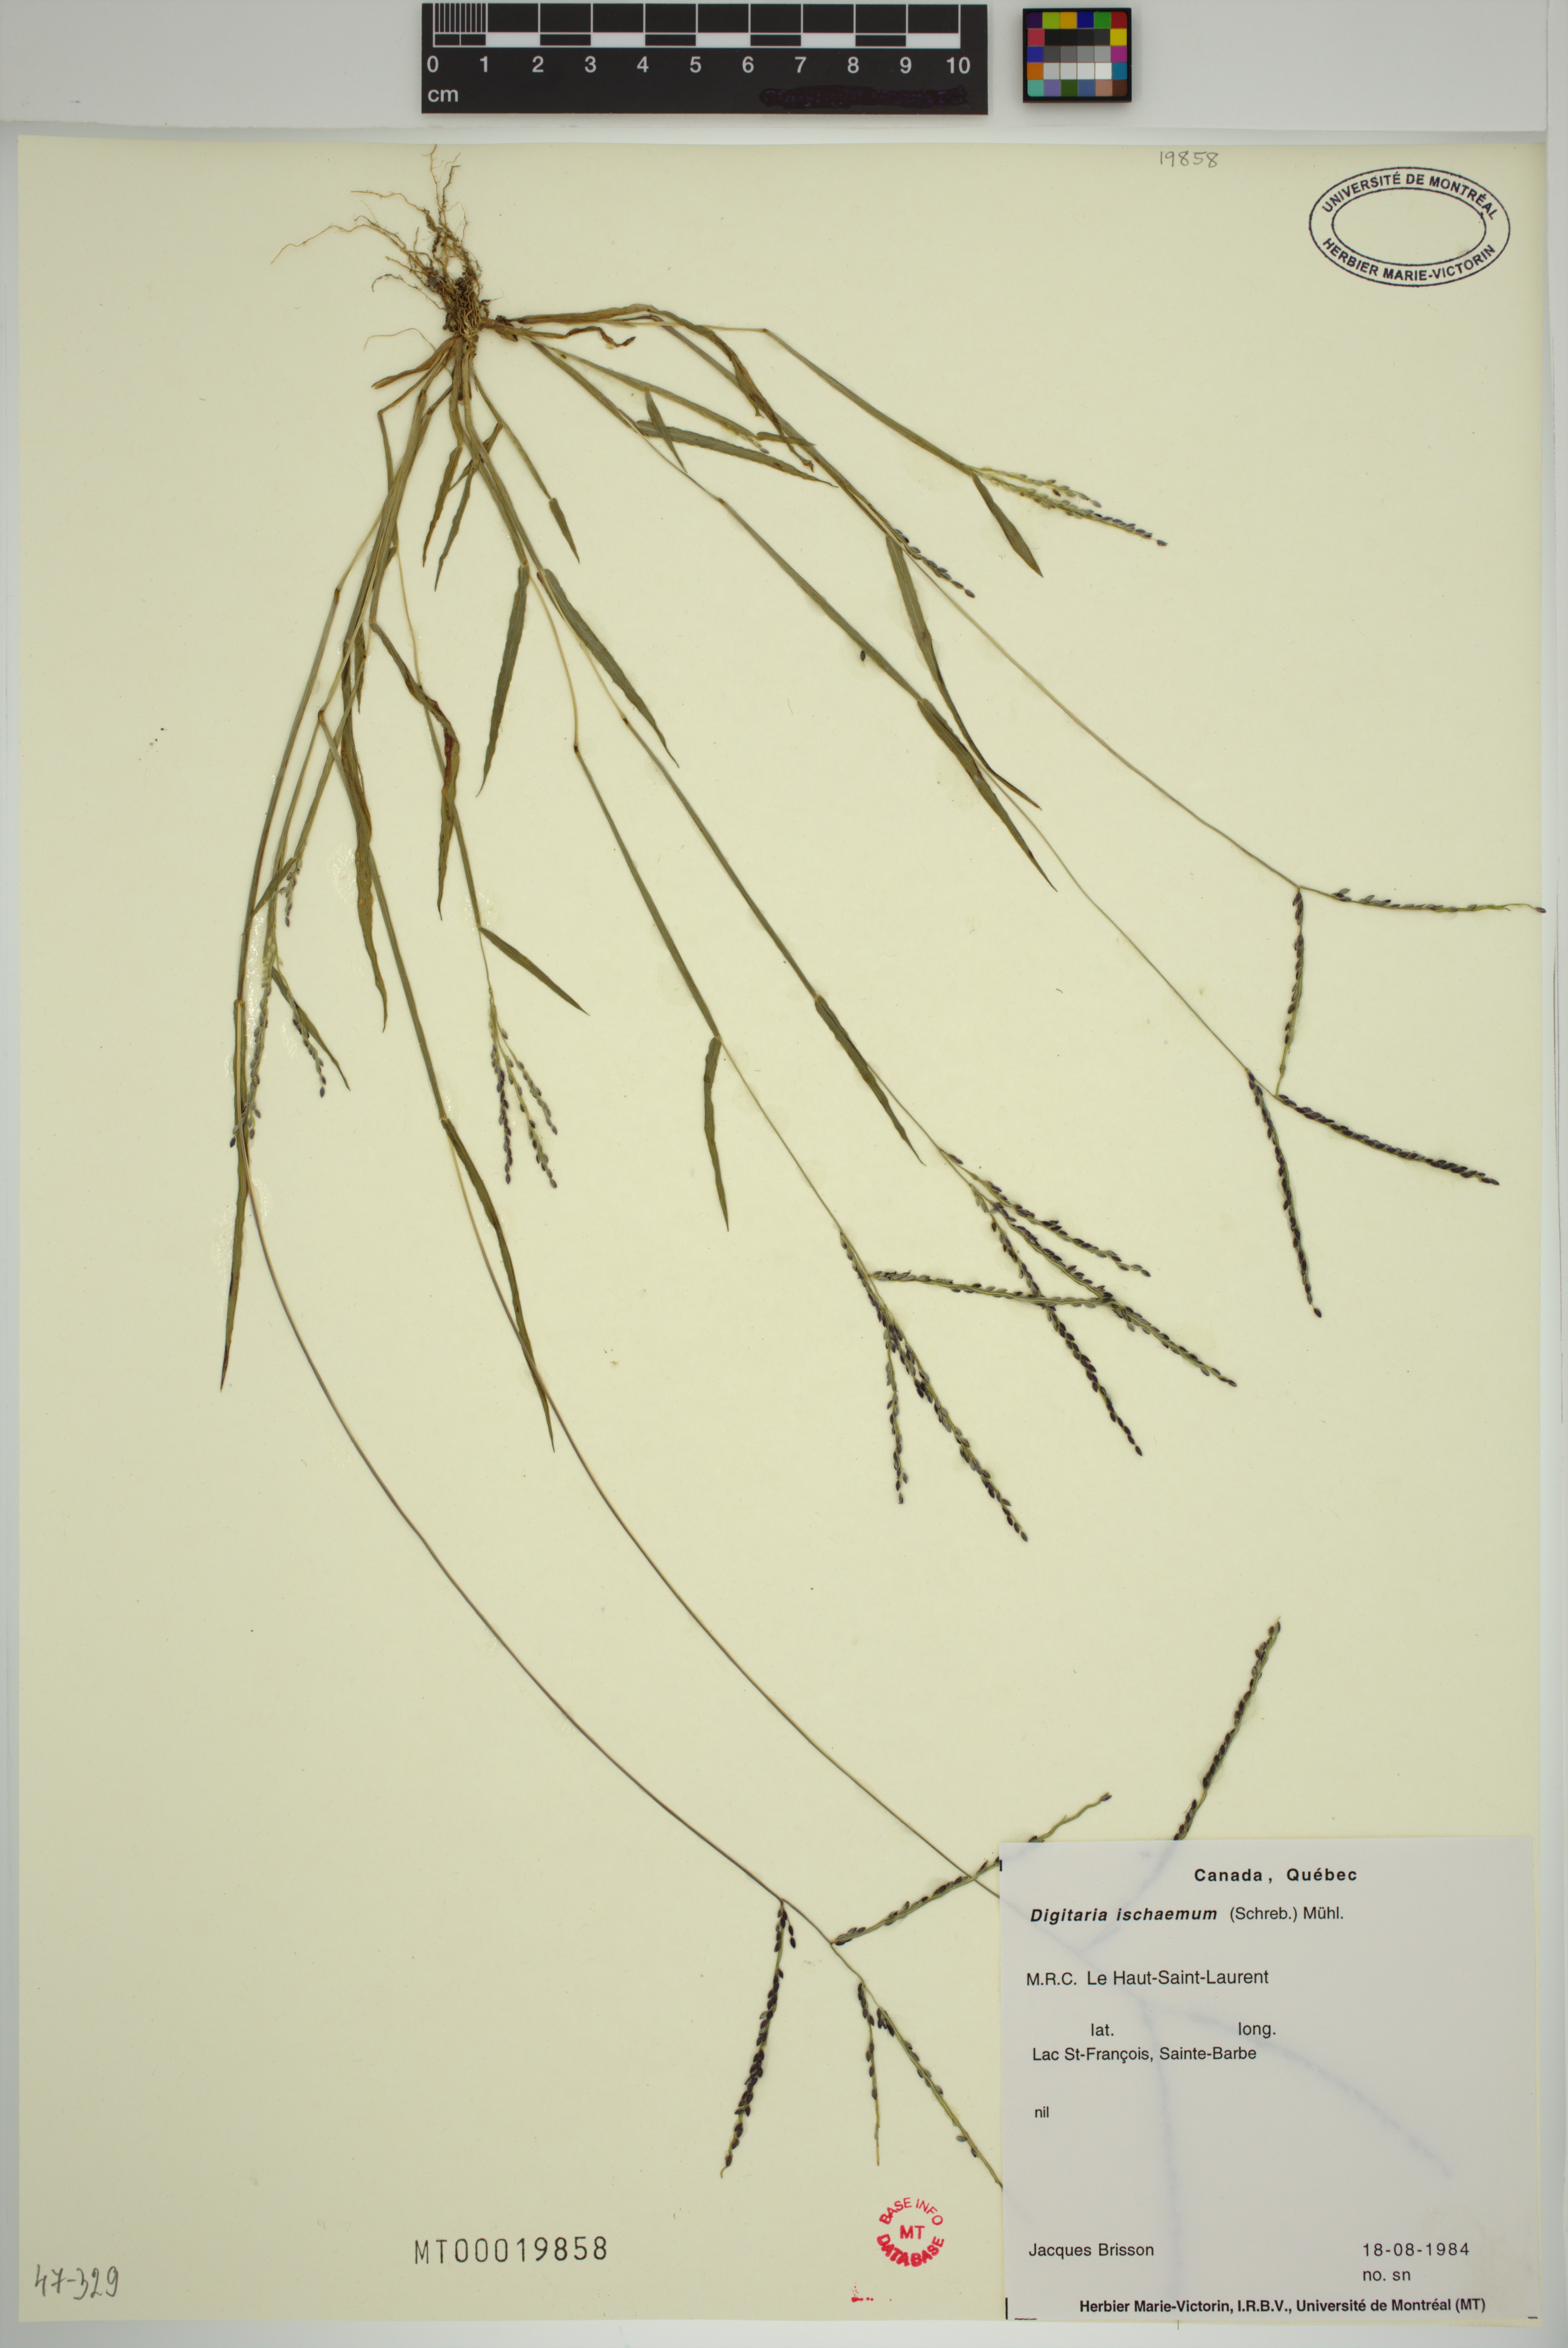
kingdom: Plantae
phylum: Tracheophyta
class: Liliopsida
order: Poales
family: Poaceae
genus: Digitaria
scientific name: Digitaria ischaemum
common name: Smooth crabgrass
